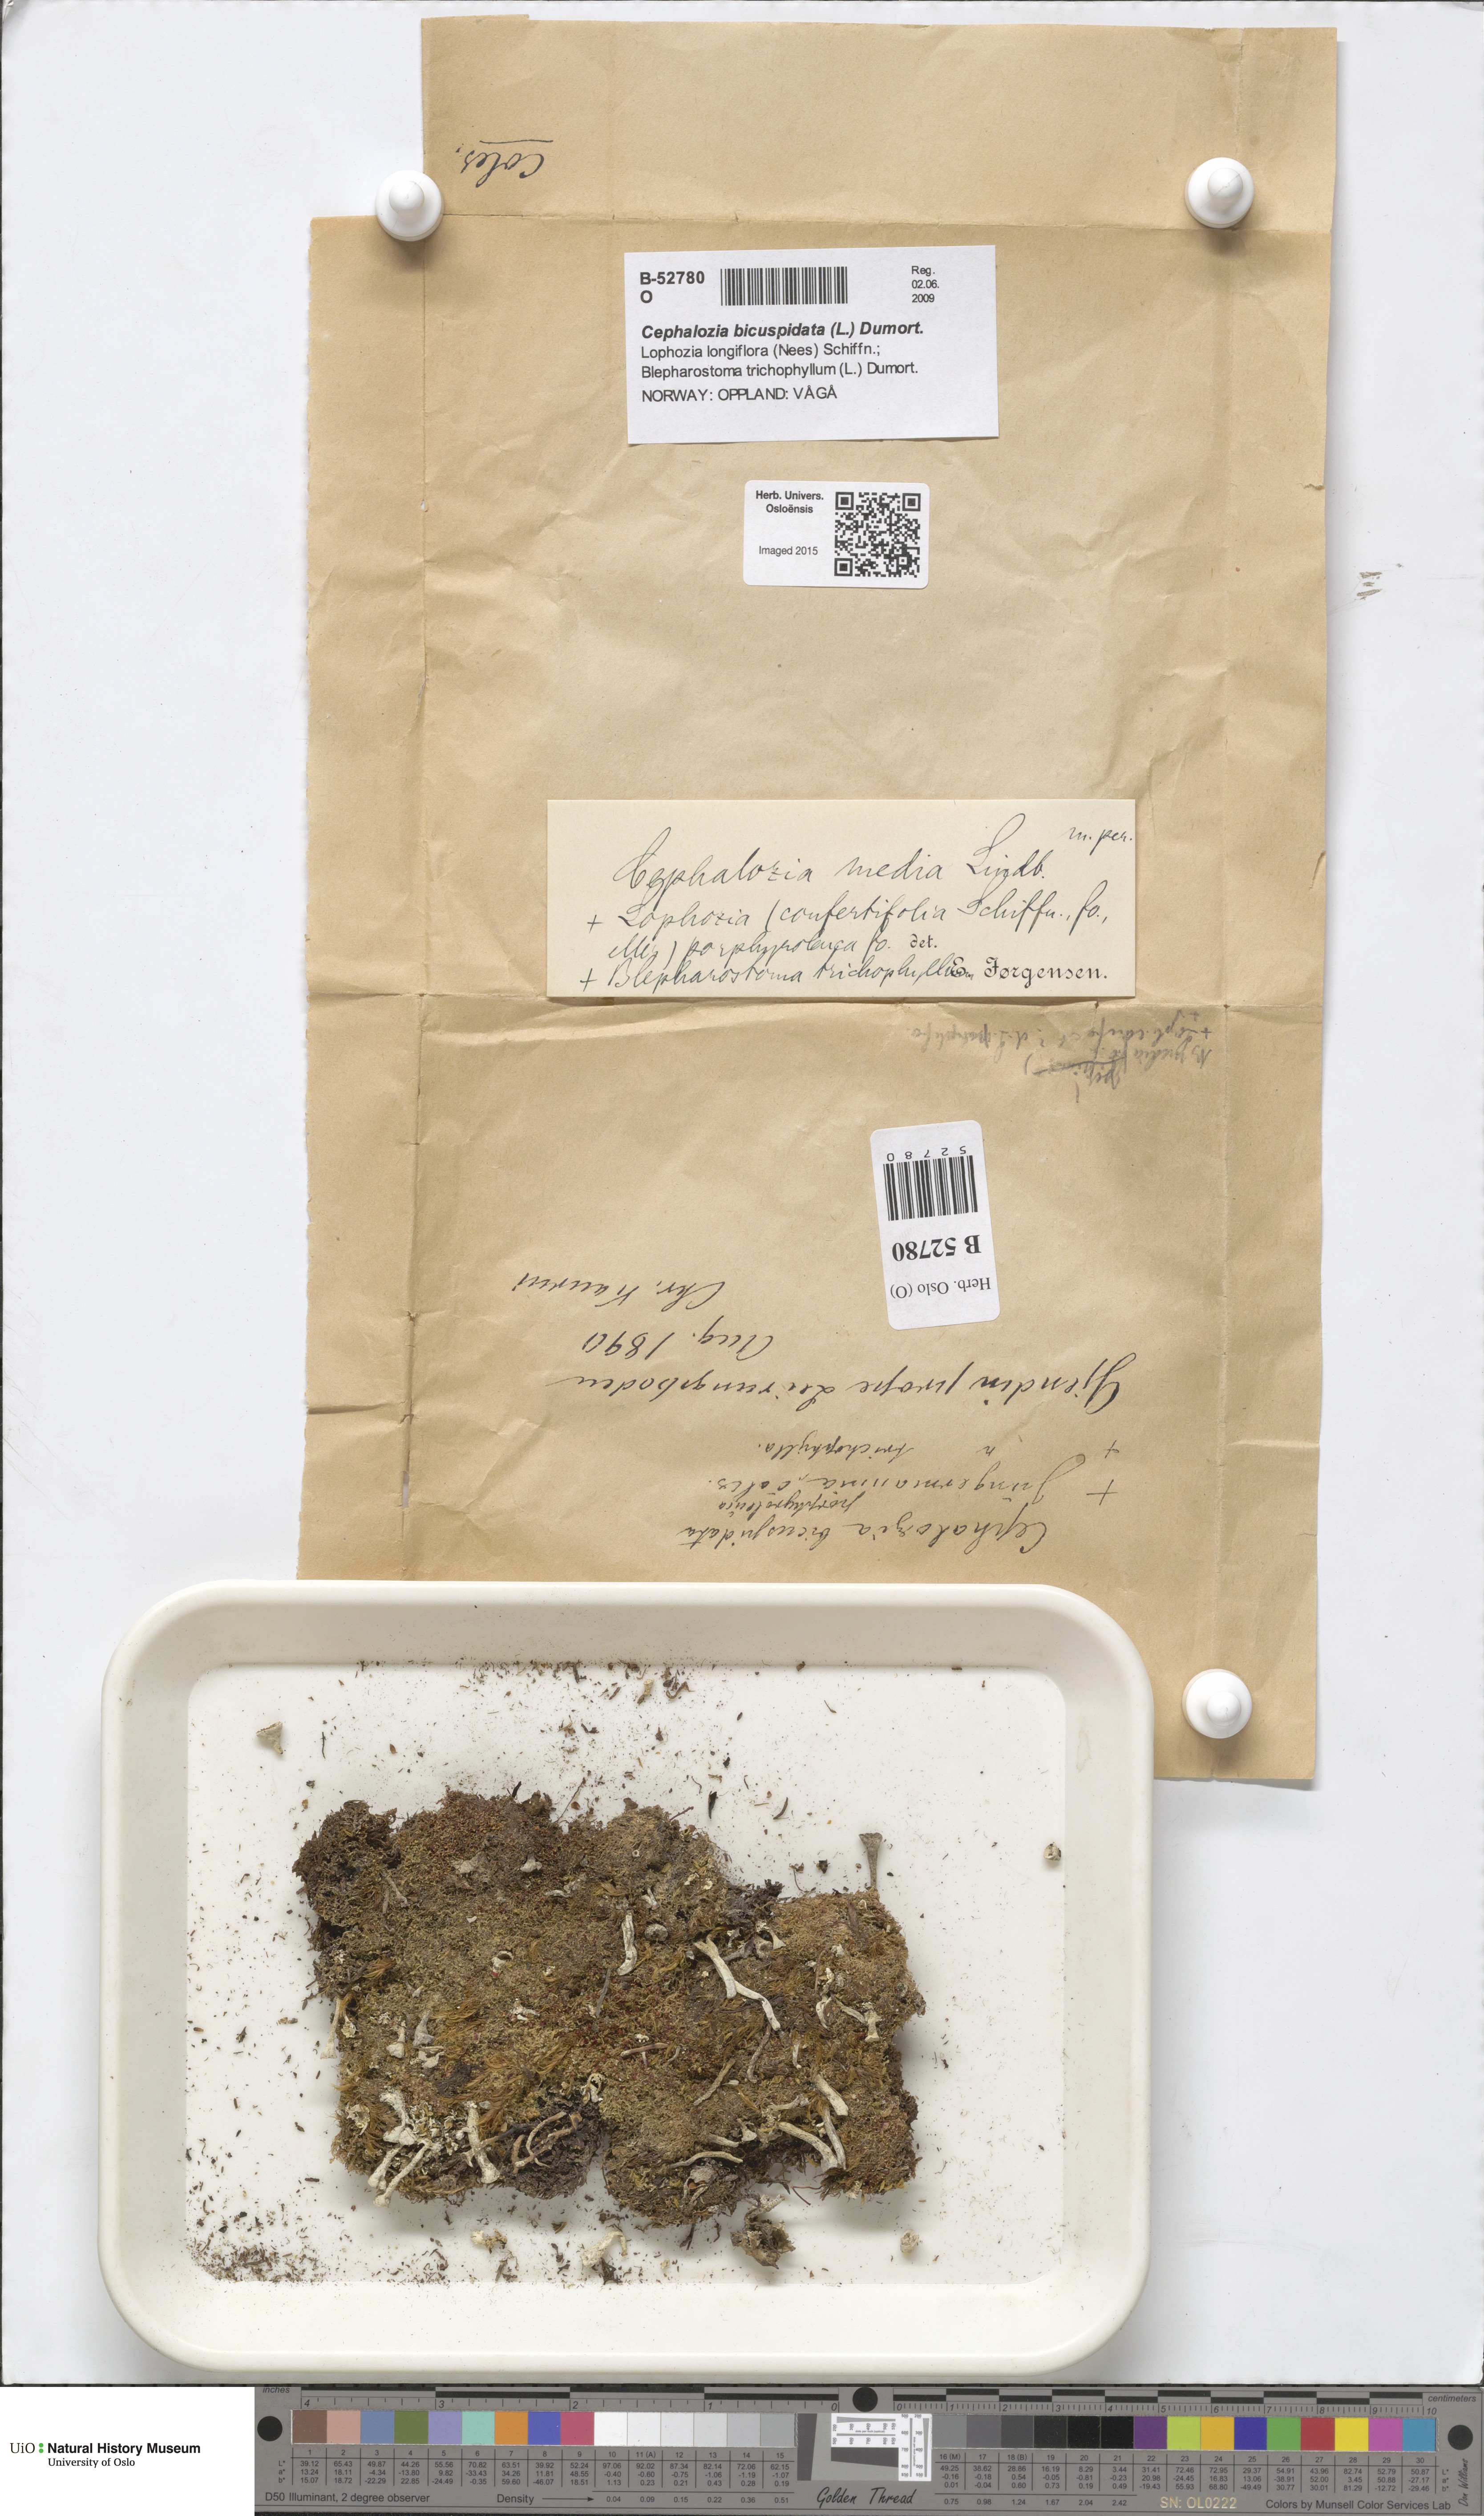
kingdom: Plantae
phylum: Marchantiophyta
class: Jungermanniopsida
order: Jungermanniales
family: Cephaloziaceae
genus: Fuscocephaloziopsis
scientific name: Fuscocephaloziopsis lunulifolia
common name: Moon-leaved pincerwort
